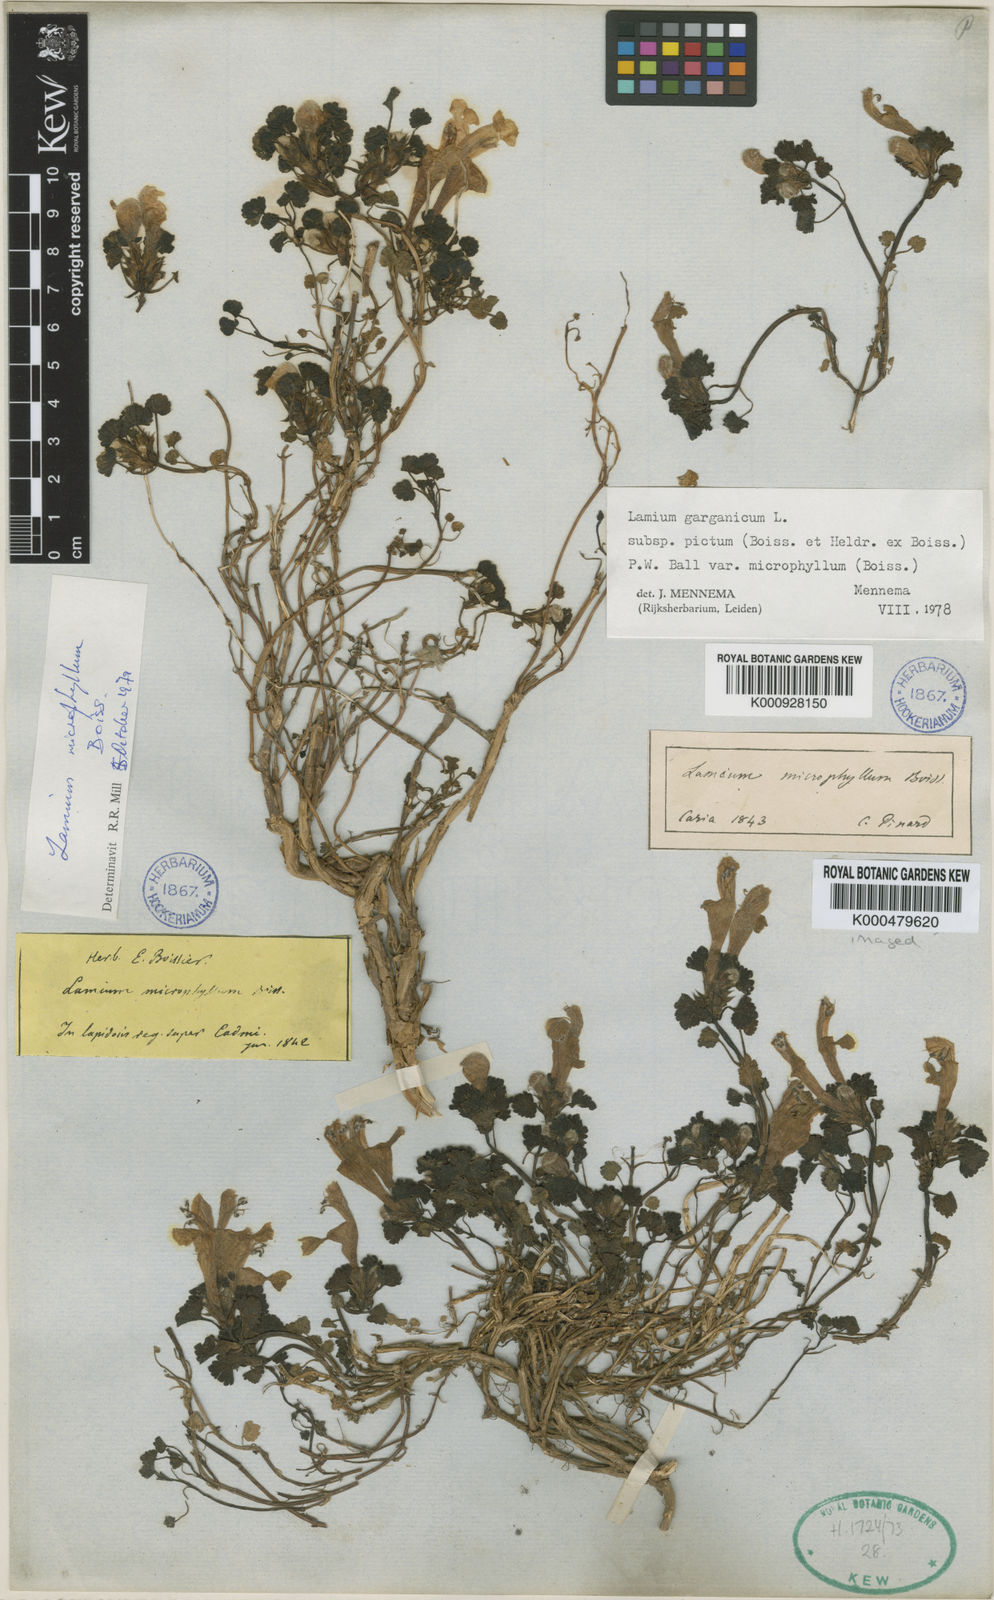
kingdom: Plantae
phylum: Tracheophyta
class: Magnoliopsida
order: Lamiales
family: Lamiaceae
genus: Lamium
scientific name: Lamium garganicum
